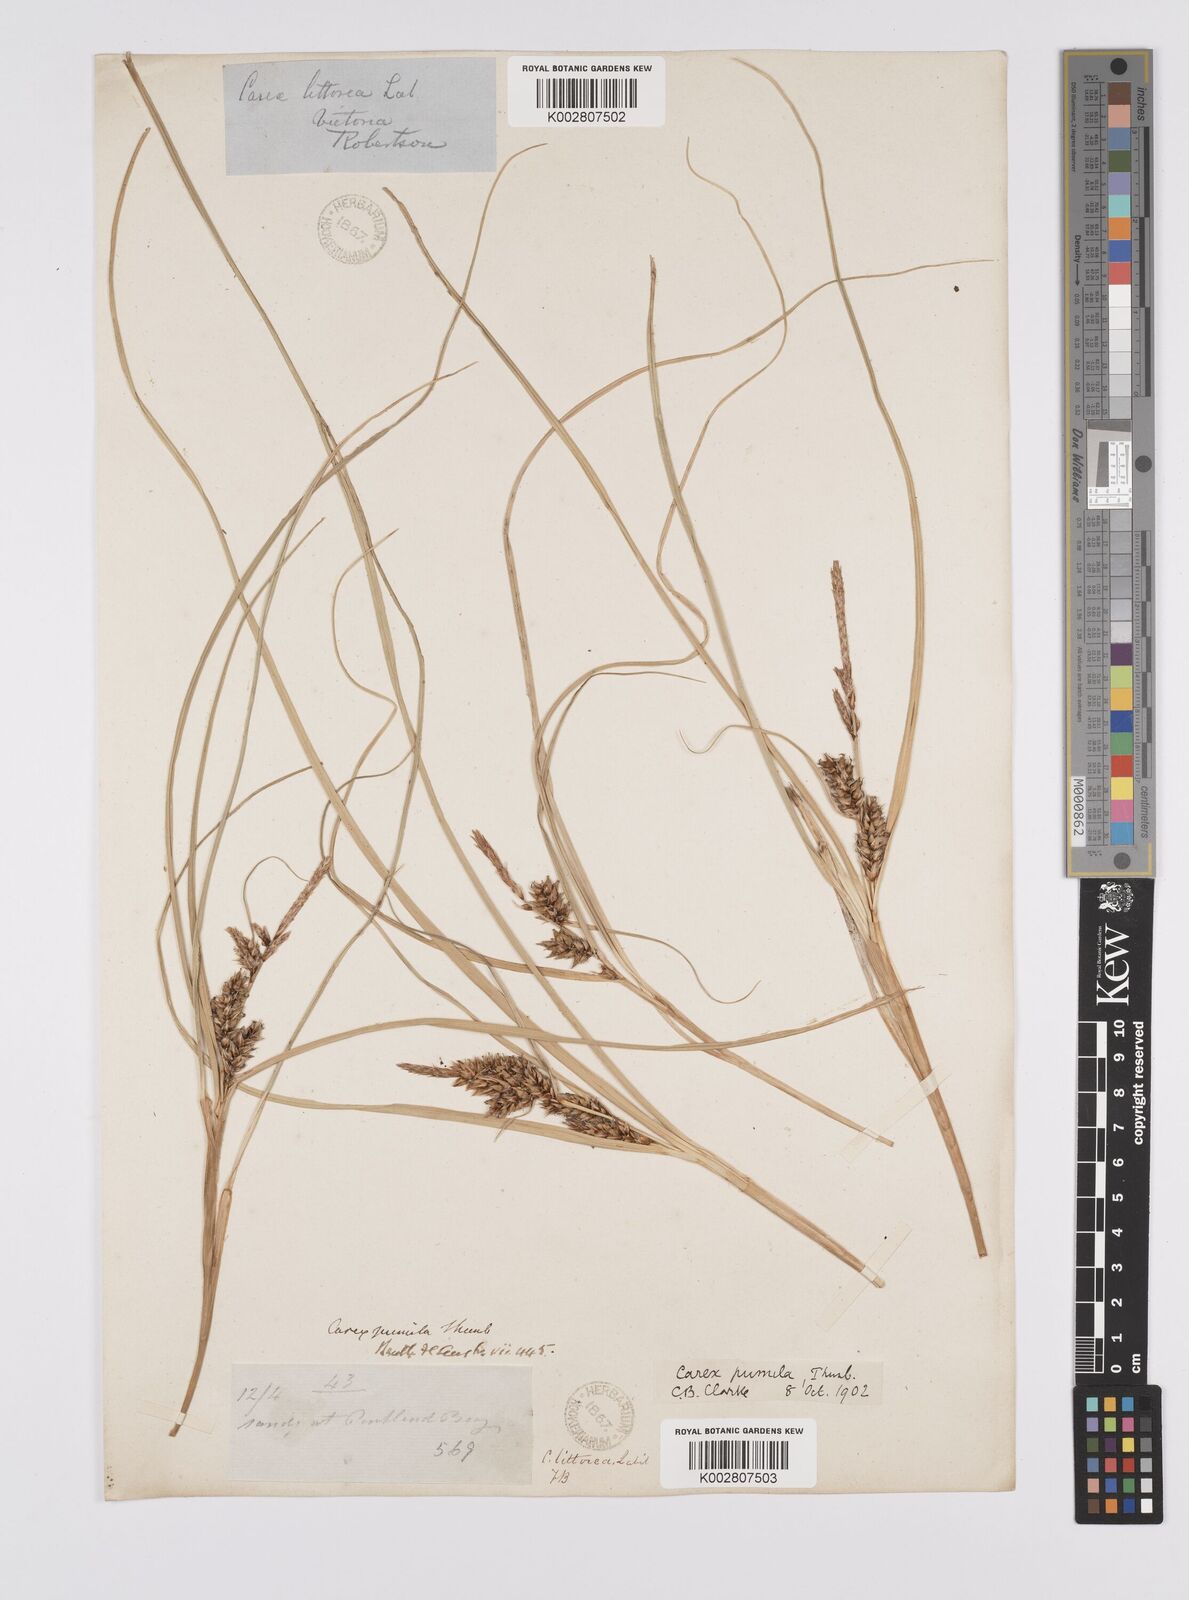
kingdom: Plantae
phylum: Tracheophyta
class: Liliopsida
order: Poales
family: Cyperaceae
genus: Carex
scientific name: Carex pumila
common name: Dwarf sedge
